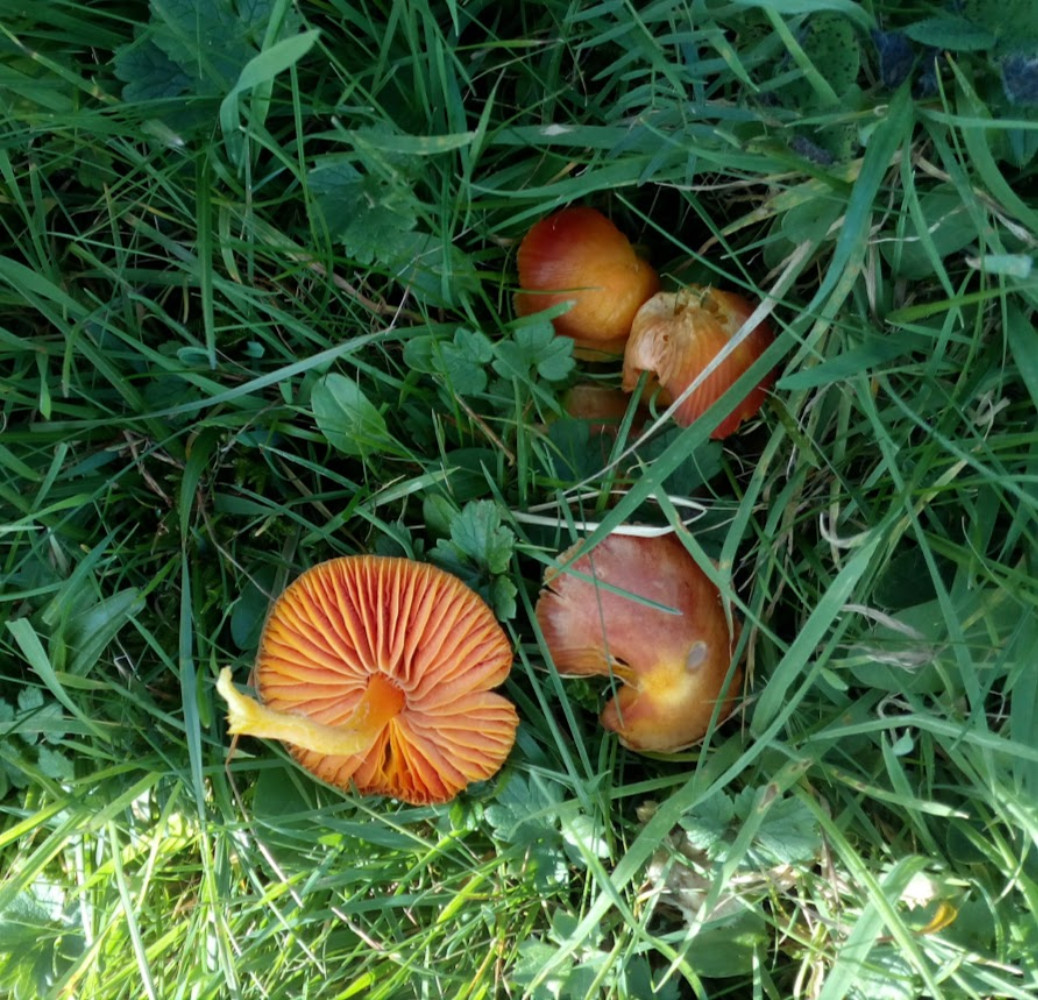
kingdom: Fungi
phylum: Basidiomycota
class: Agaricomycetes
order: Agaricales
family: Hygrophoraceae
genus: Hygrocybe
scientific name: Hygrocybe coccinea
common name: cinnober-vokshat
